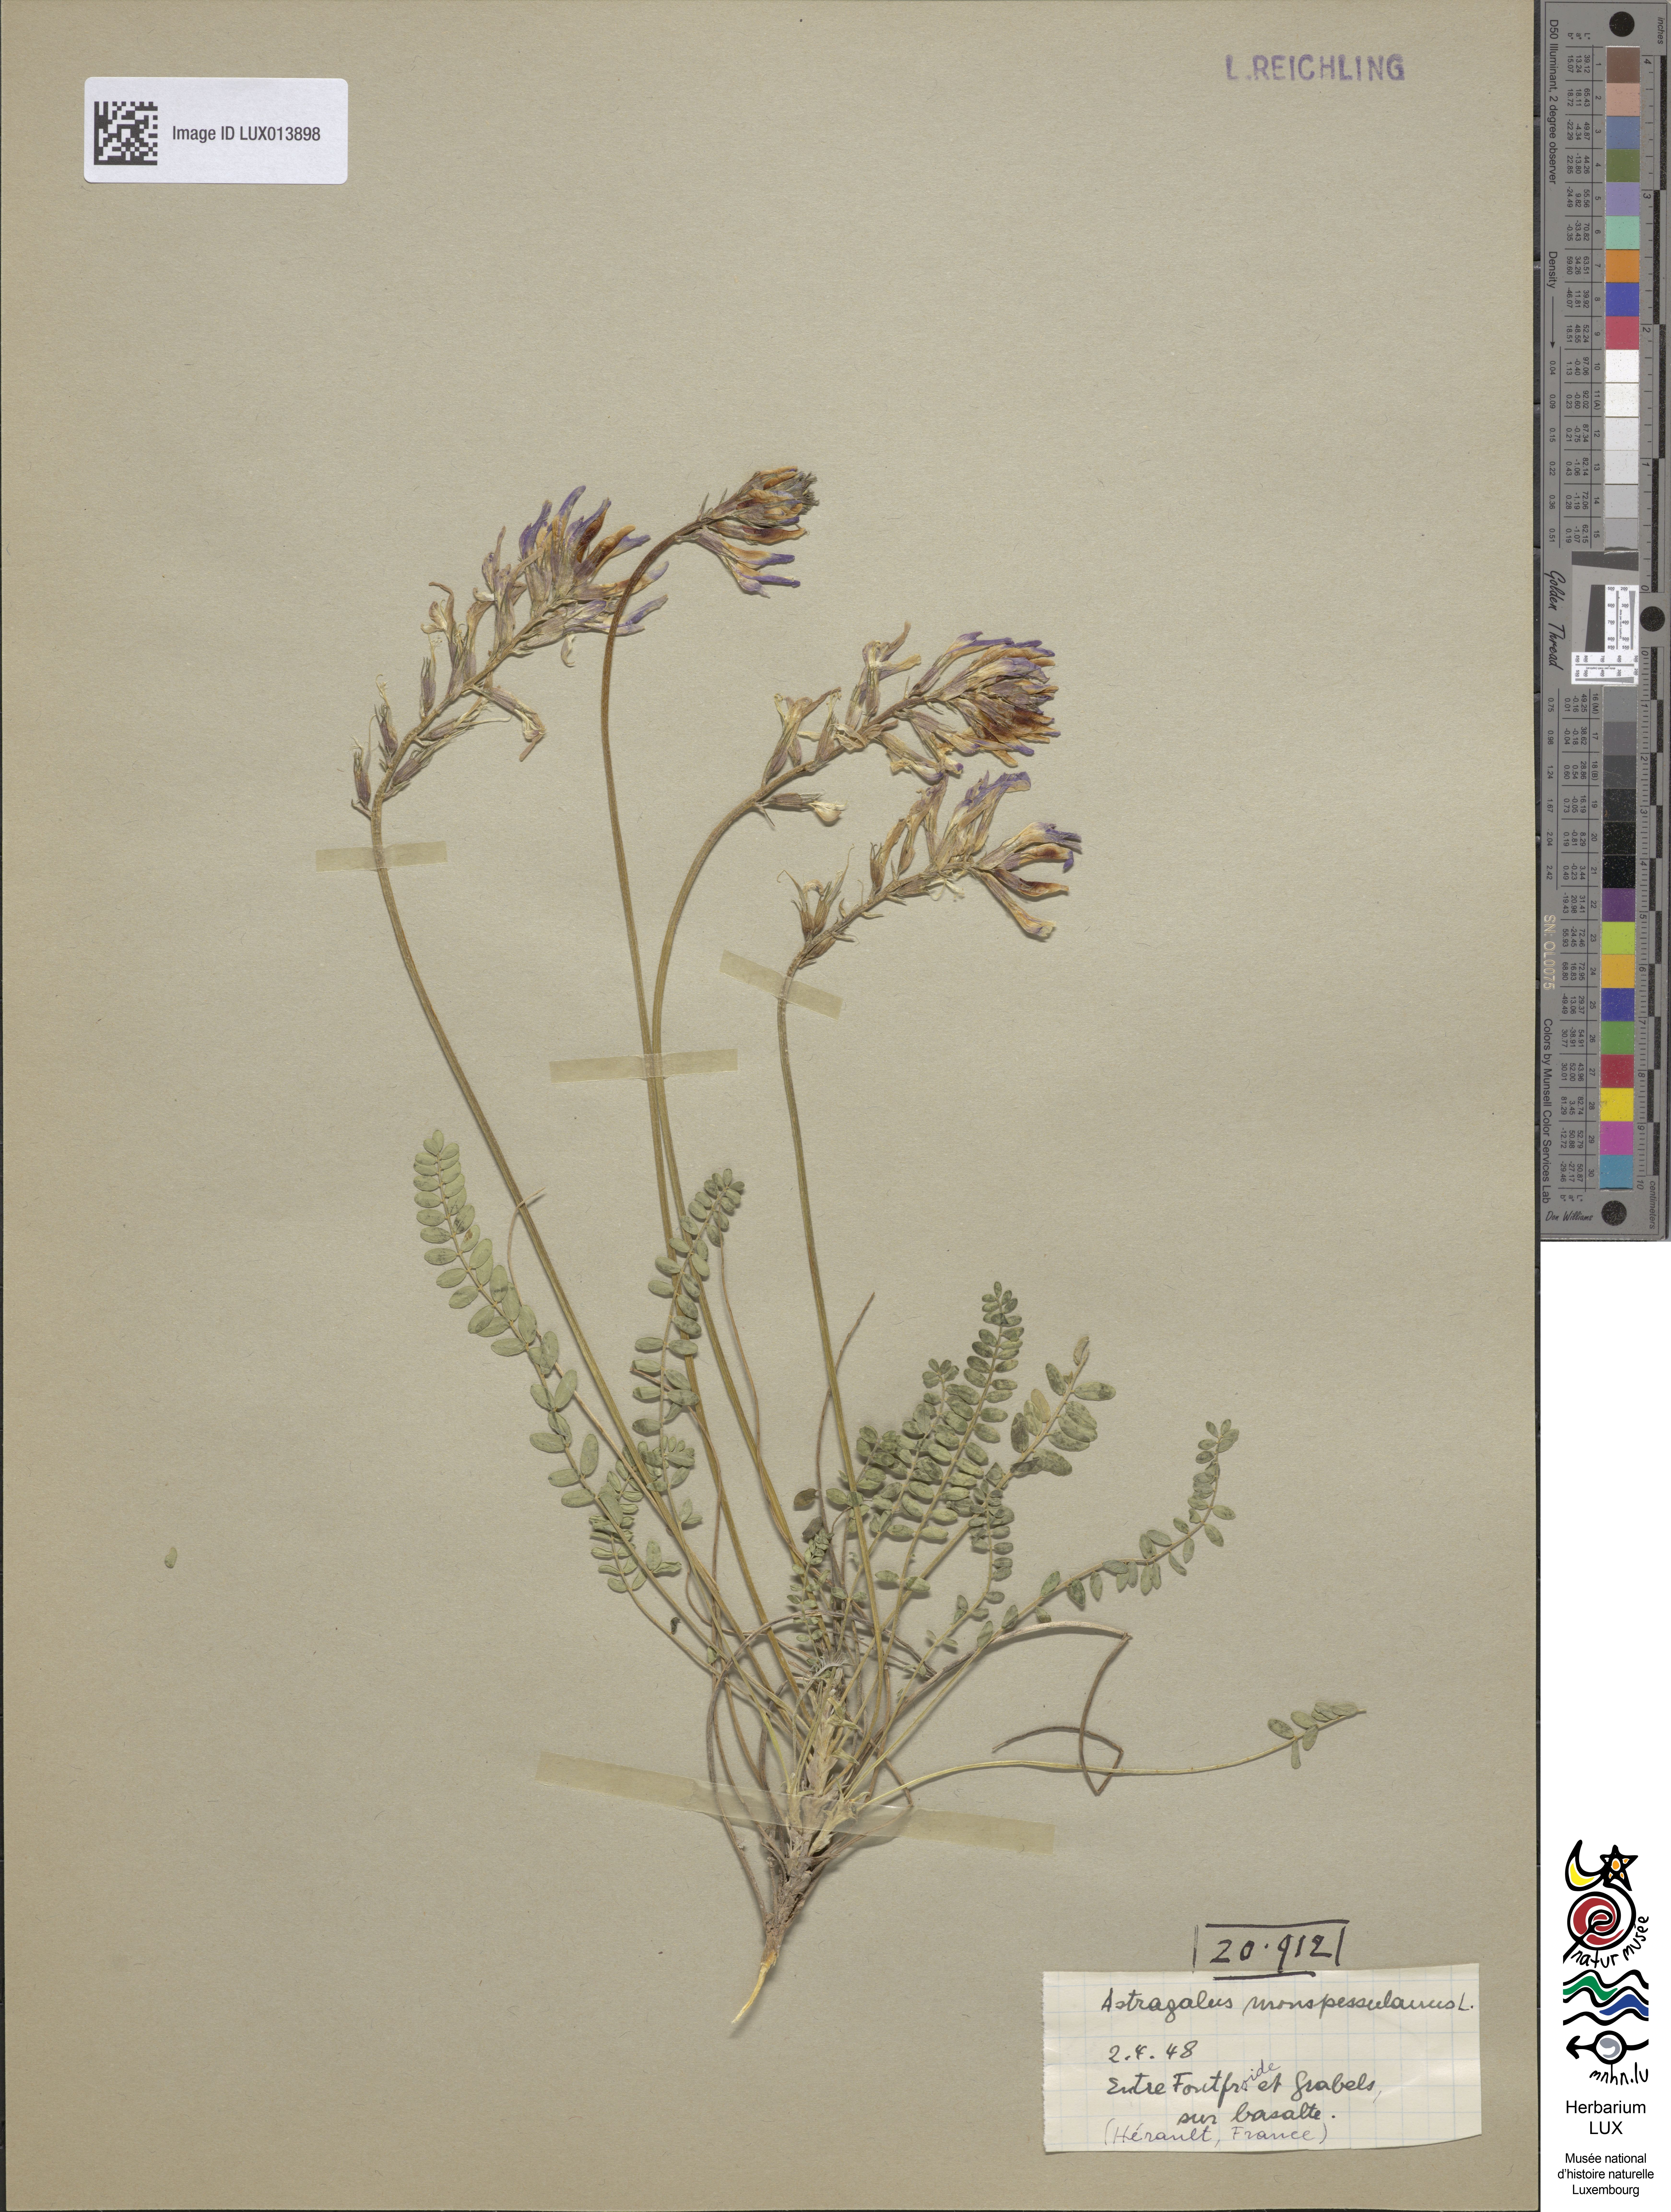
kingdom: Plantae
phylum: Tracheophyta
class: Magnoliopsida
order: Fabales
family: Fabaceae
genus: Astragalus
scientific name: Astragalus monspessulanus
